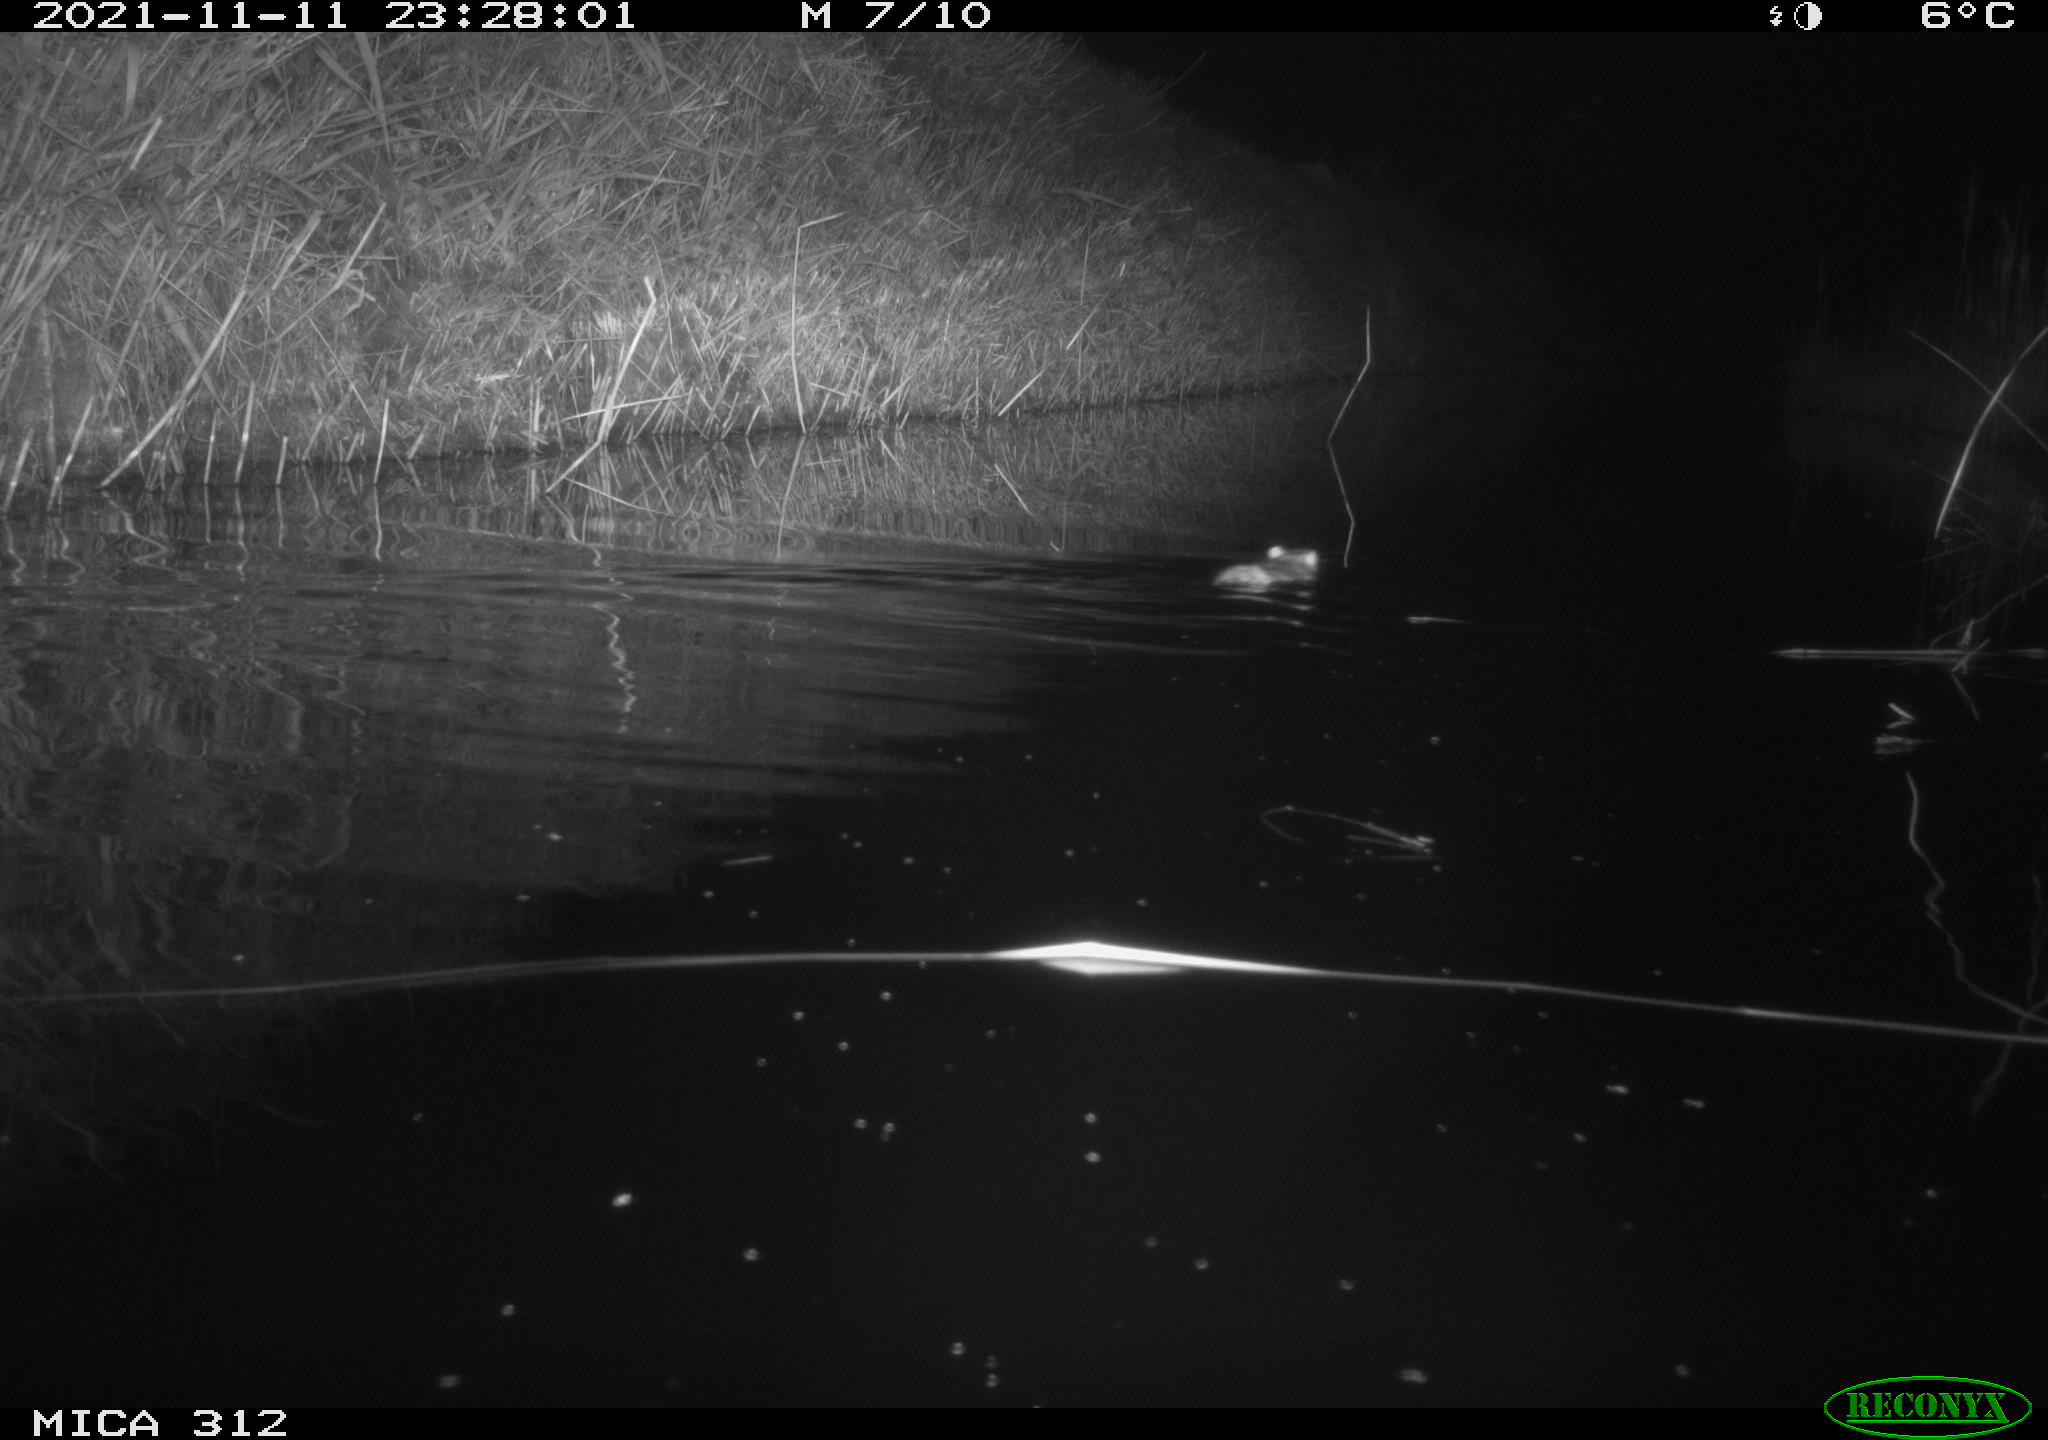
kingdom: Animalia
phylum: Chordata
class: Mammalia
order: Rodentia
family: Muridae
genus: Rattus
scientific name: Rattus norvegicus
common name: Brown rat
